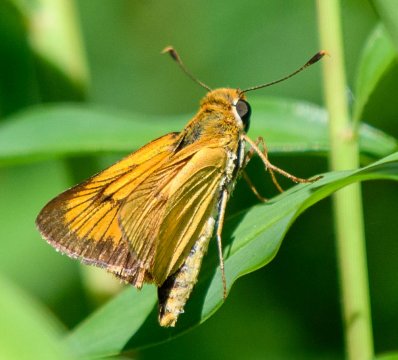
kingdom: Animalia
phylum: Arthropoda
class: Insecta
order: Lepidoptera
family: Hesperiidae
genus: Atrytone
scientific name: Atrytone delaware
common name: Delaware Skipper
